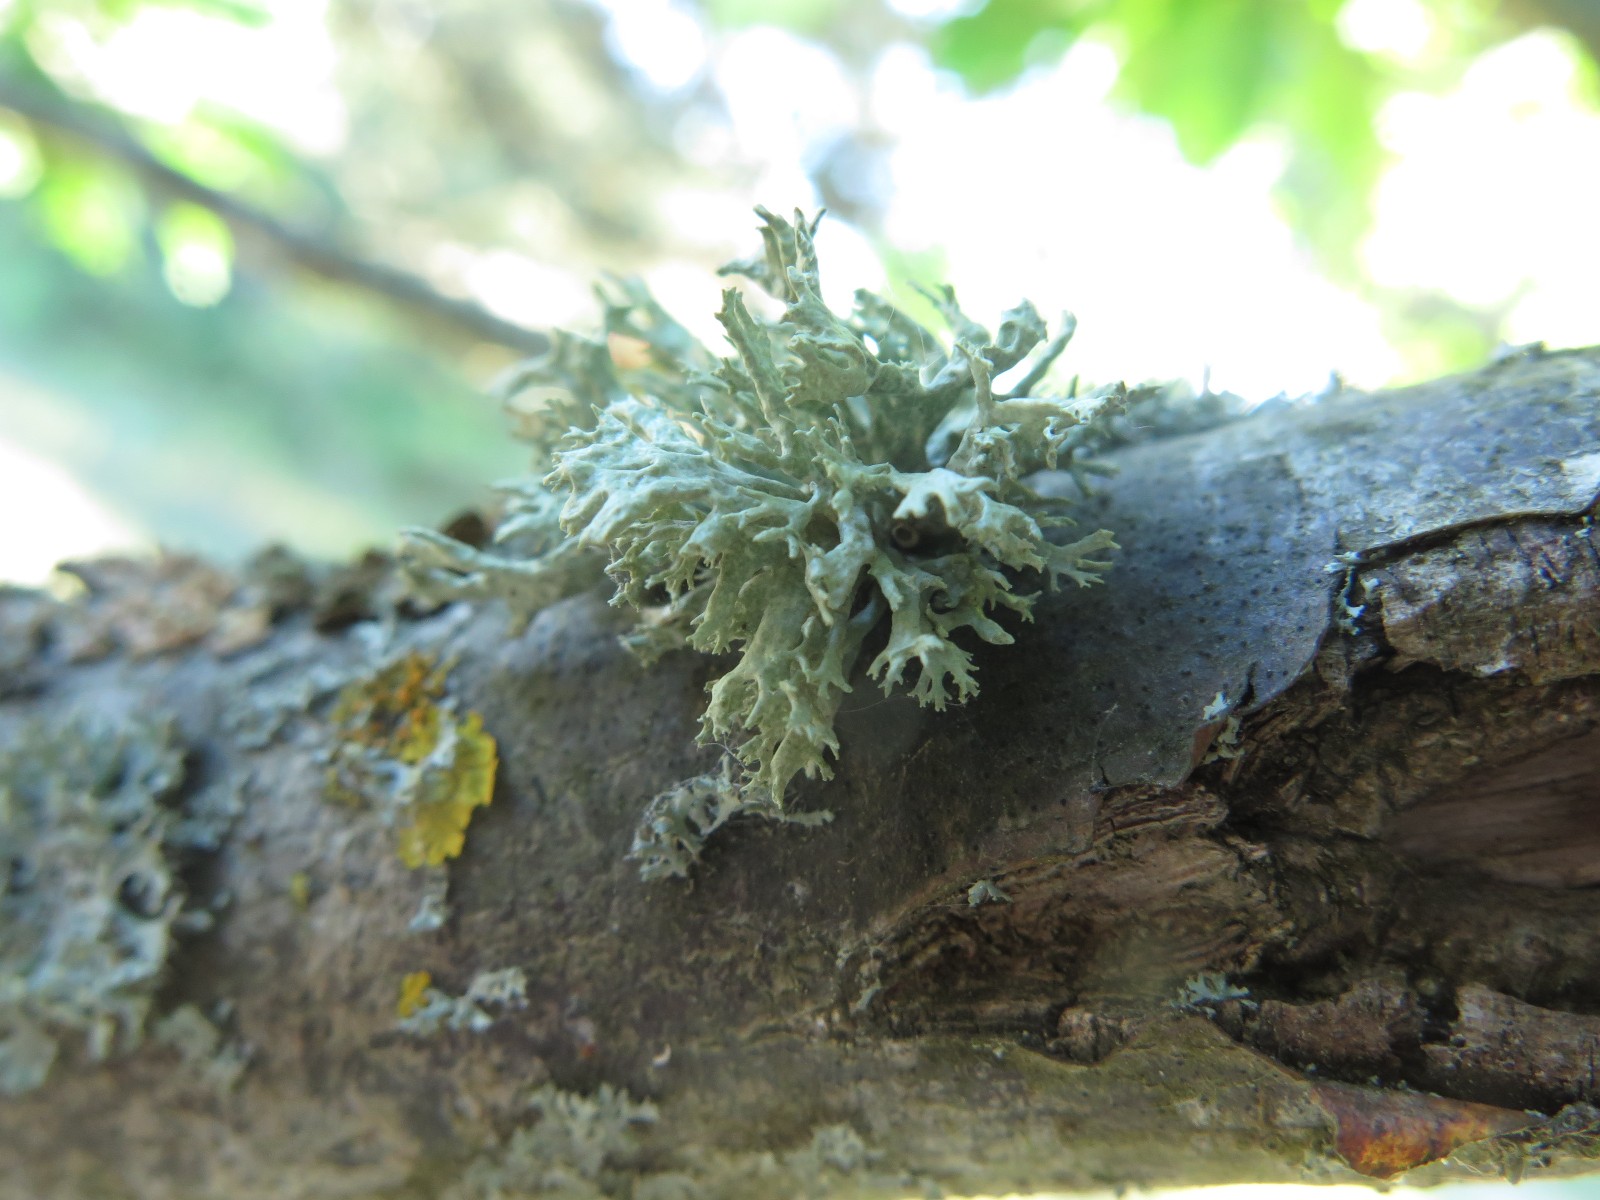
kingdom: Fungi
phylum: Ascomycota
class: Lecanoromycetes
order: Lecanorales
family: Parmeliaceae
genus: Evernia
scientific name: Evernia prunastri
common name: almindelig slåenlav
